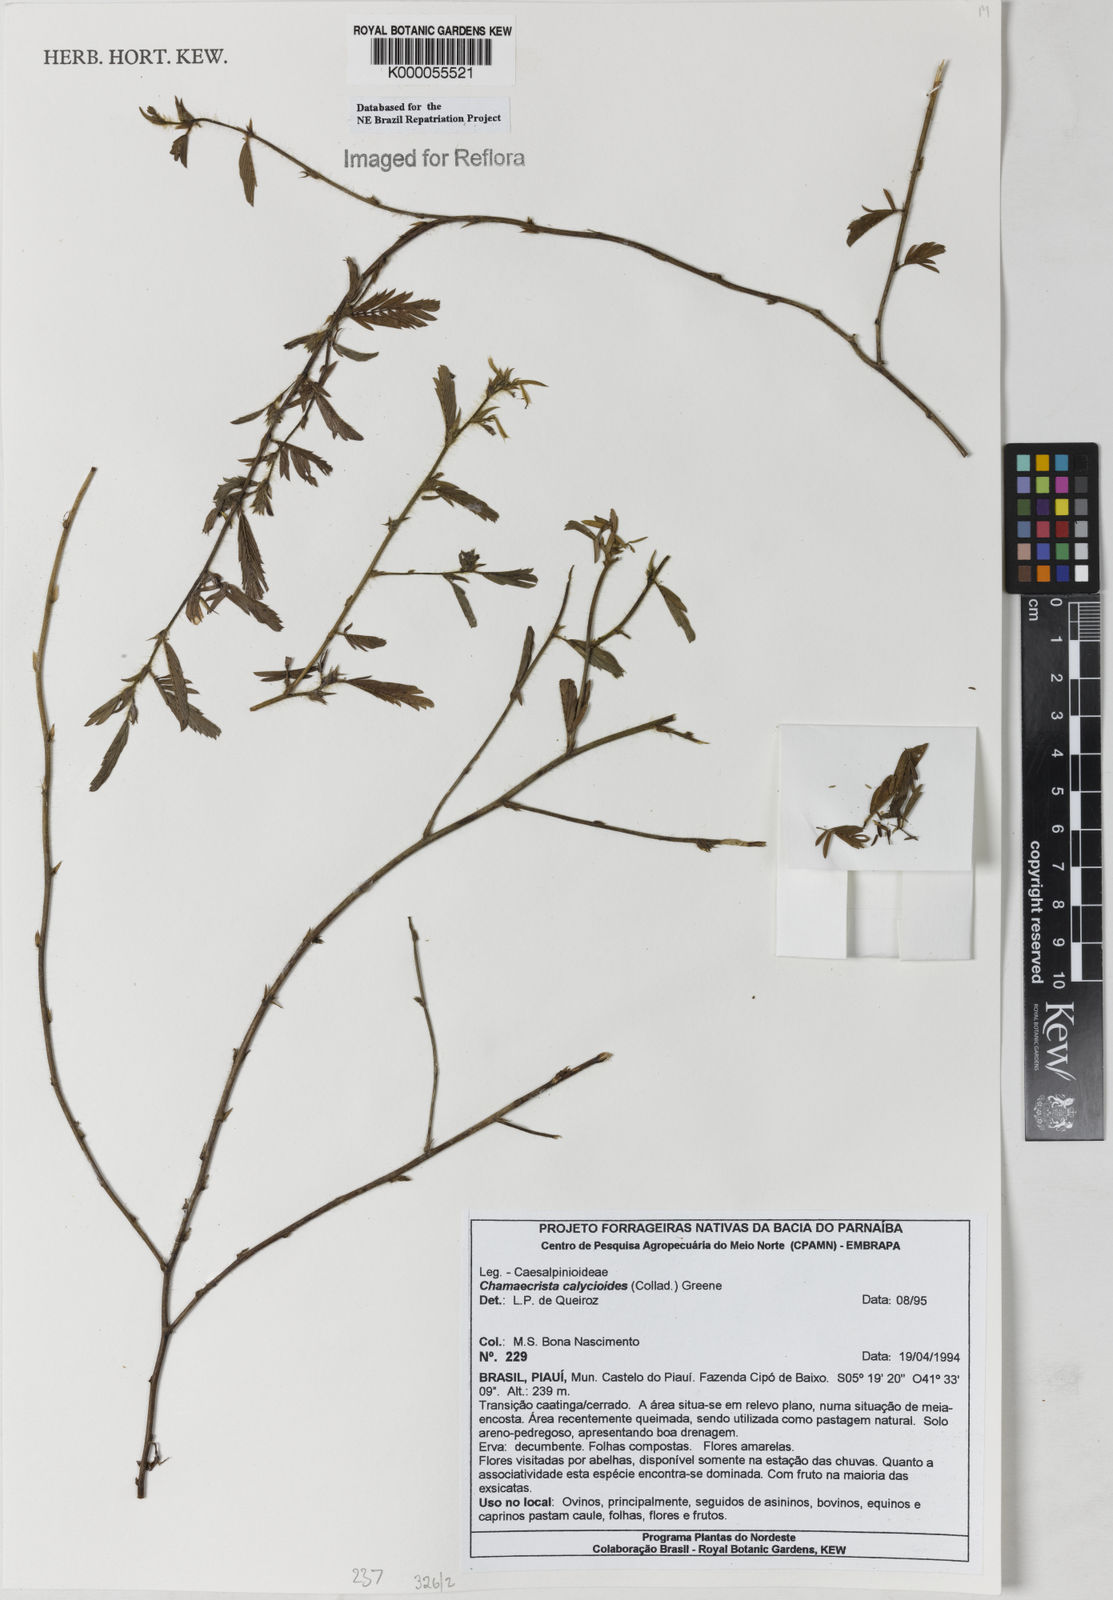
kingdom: Plantae
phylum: Tracheophyta
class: Magnoliopsida
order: Fabales
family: Fabaceae
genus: Chamaecrista
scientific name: Chamaecrista calycioides
